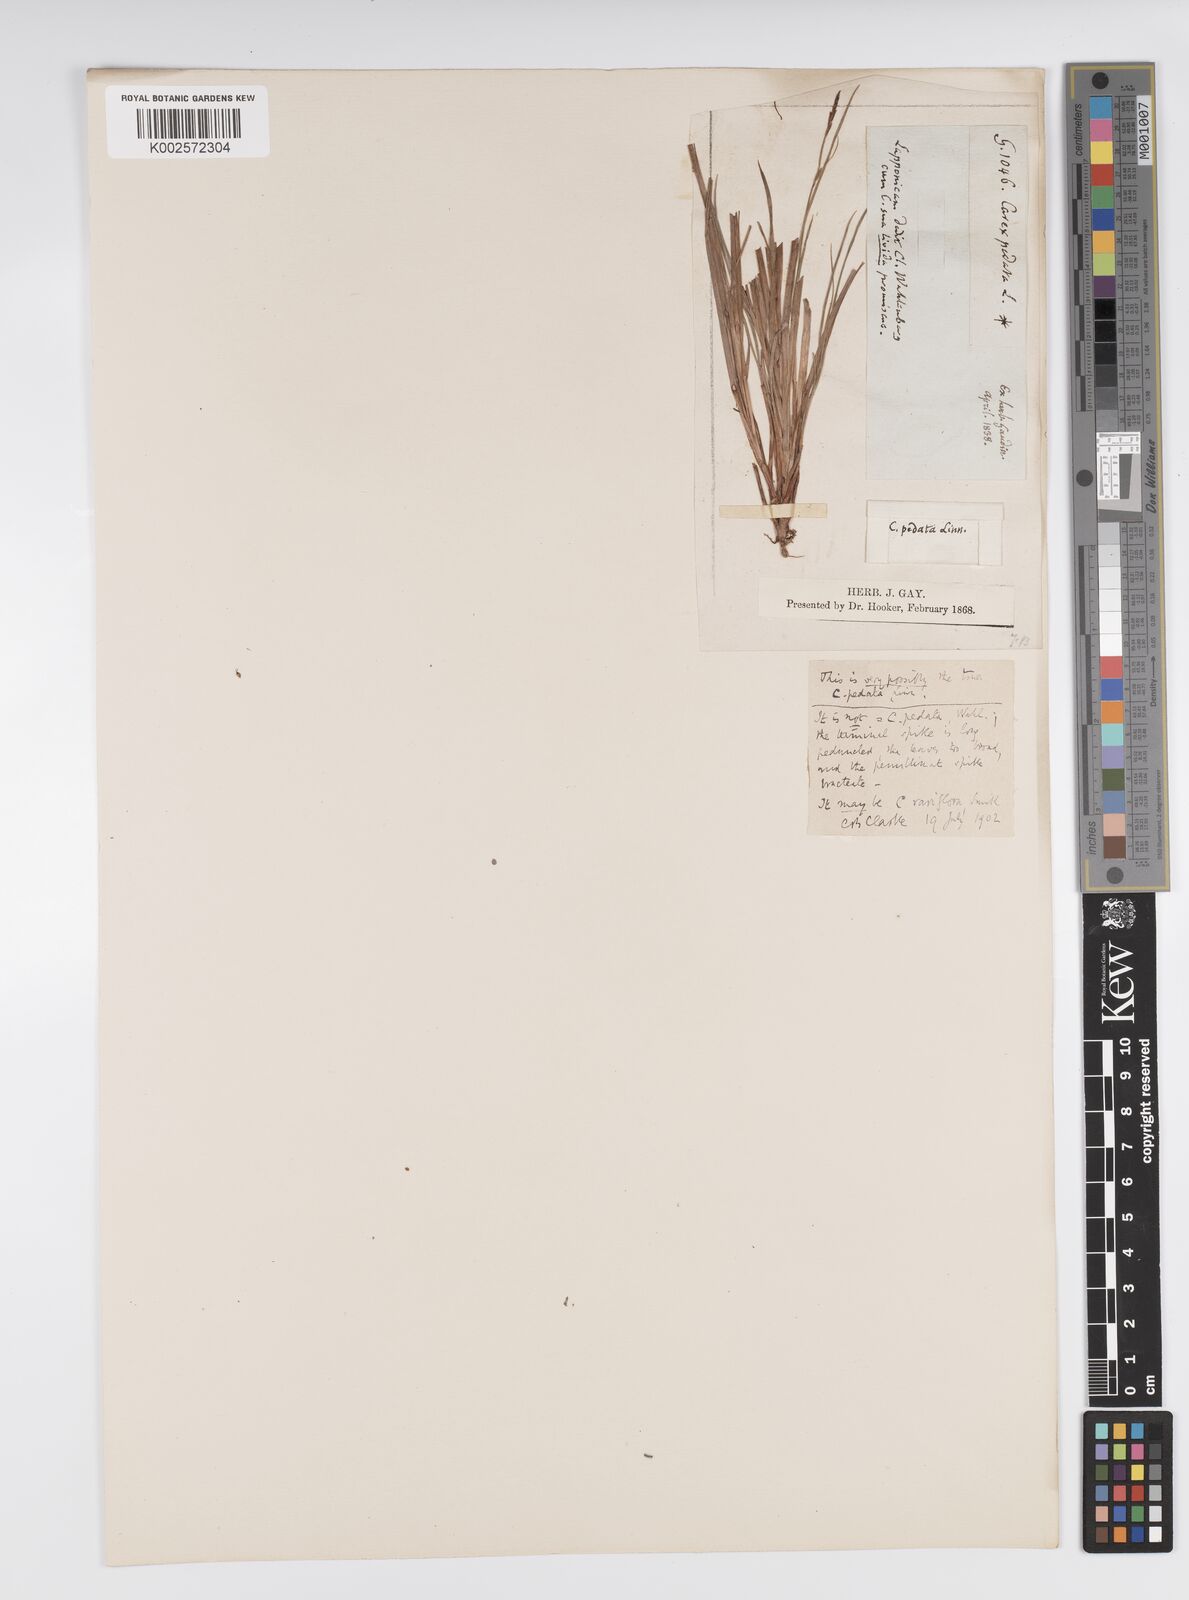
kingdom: Plantae
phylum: Tracheophyta
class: Liliopsida
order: Poales
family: Cyperaceae
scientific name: Cyperaceae
